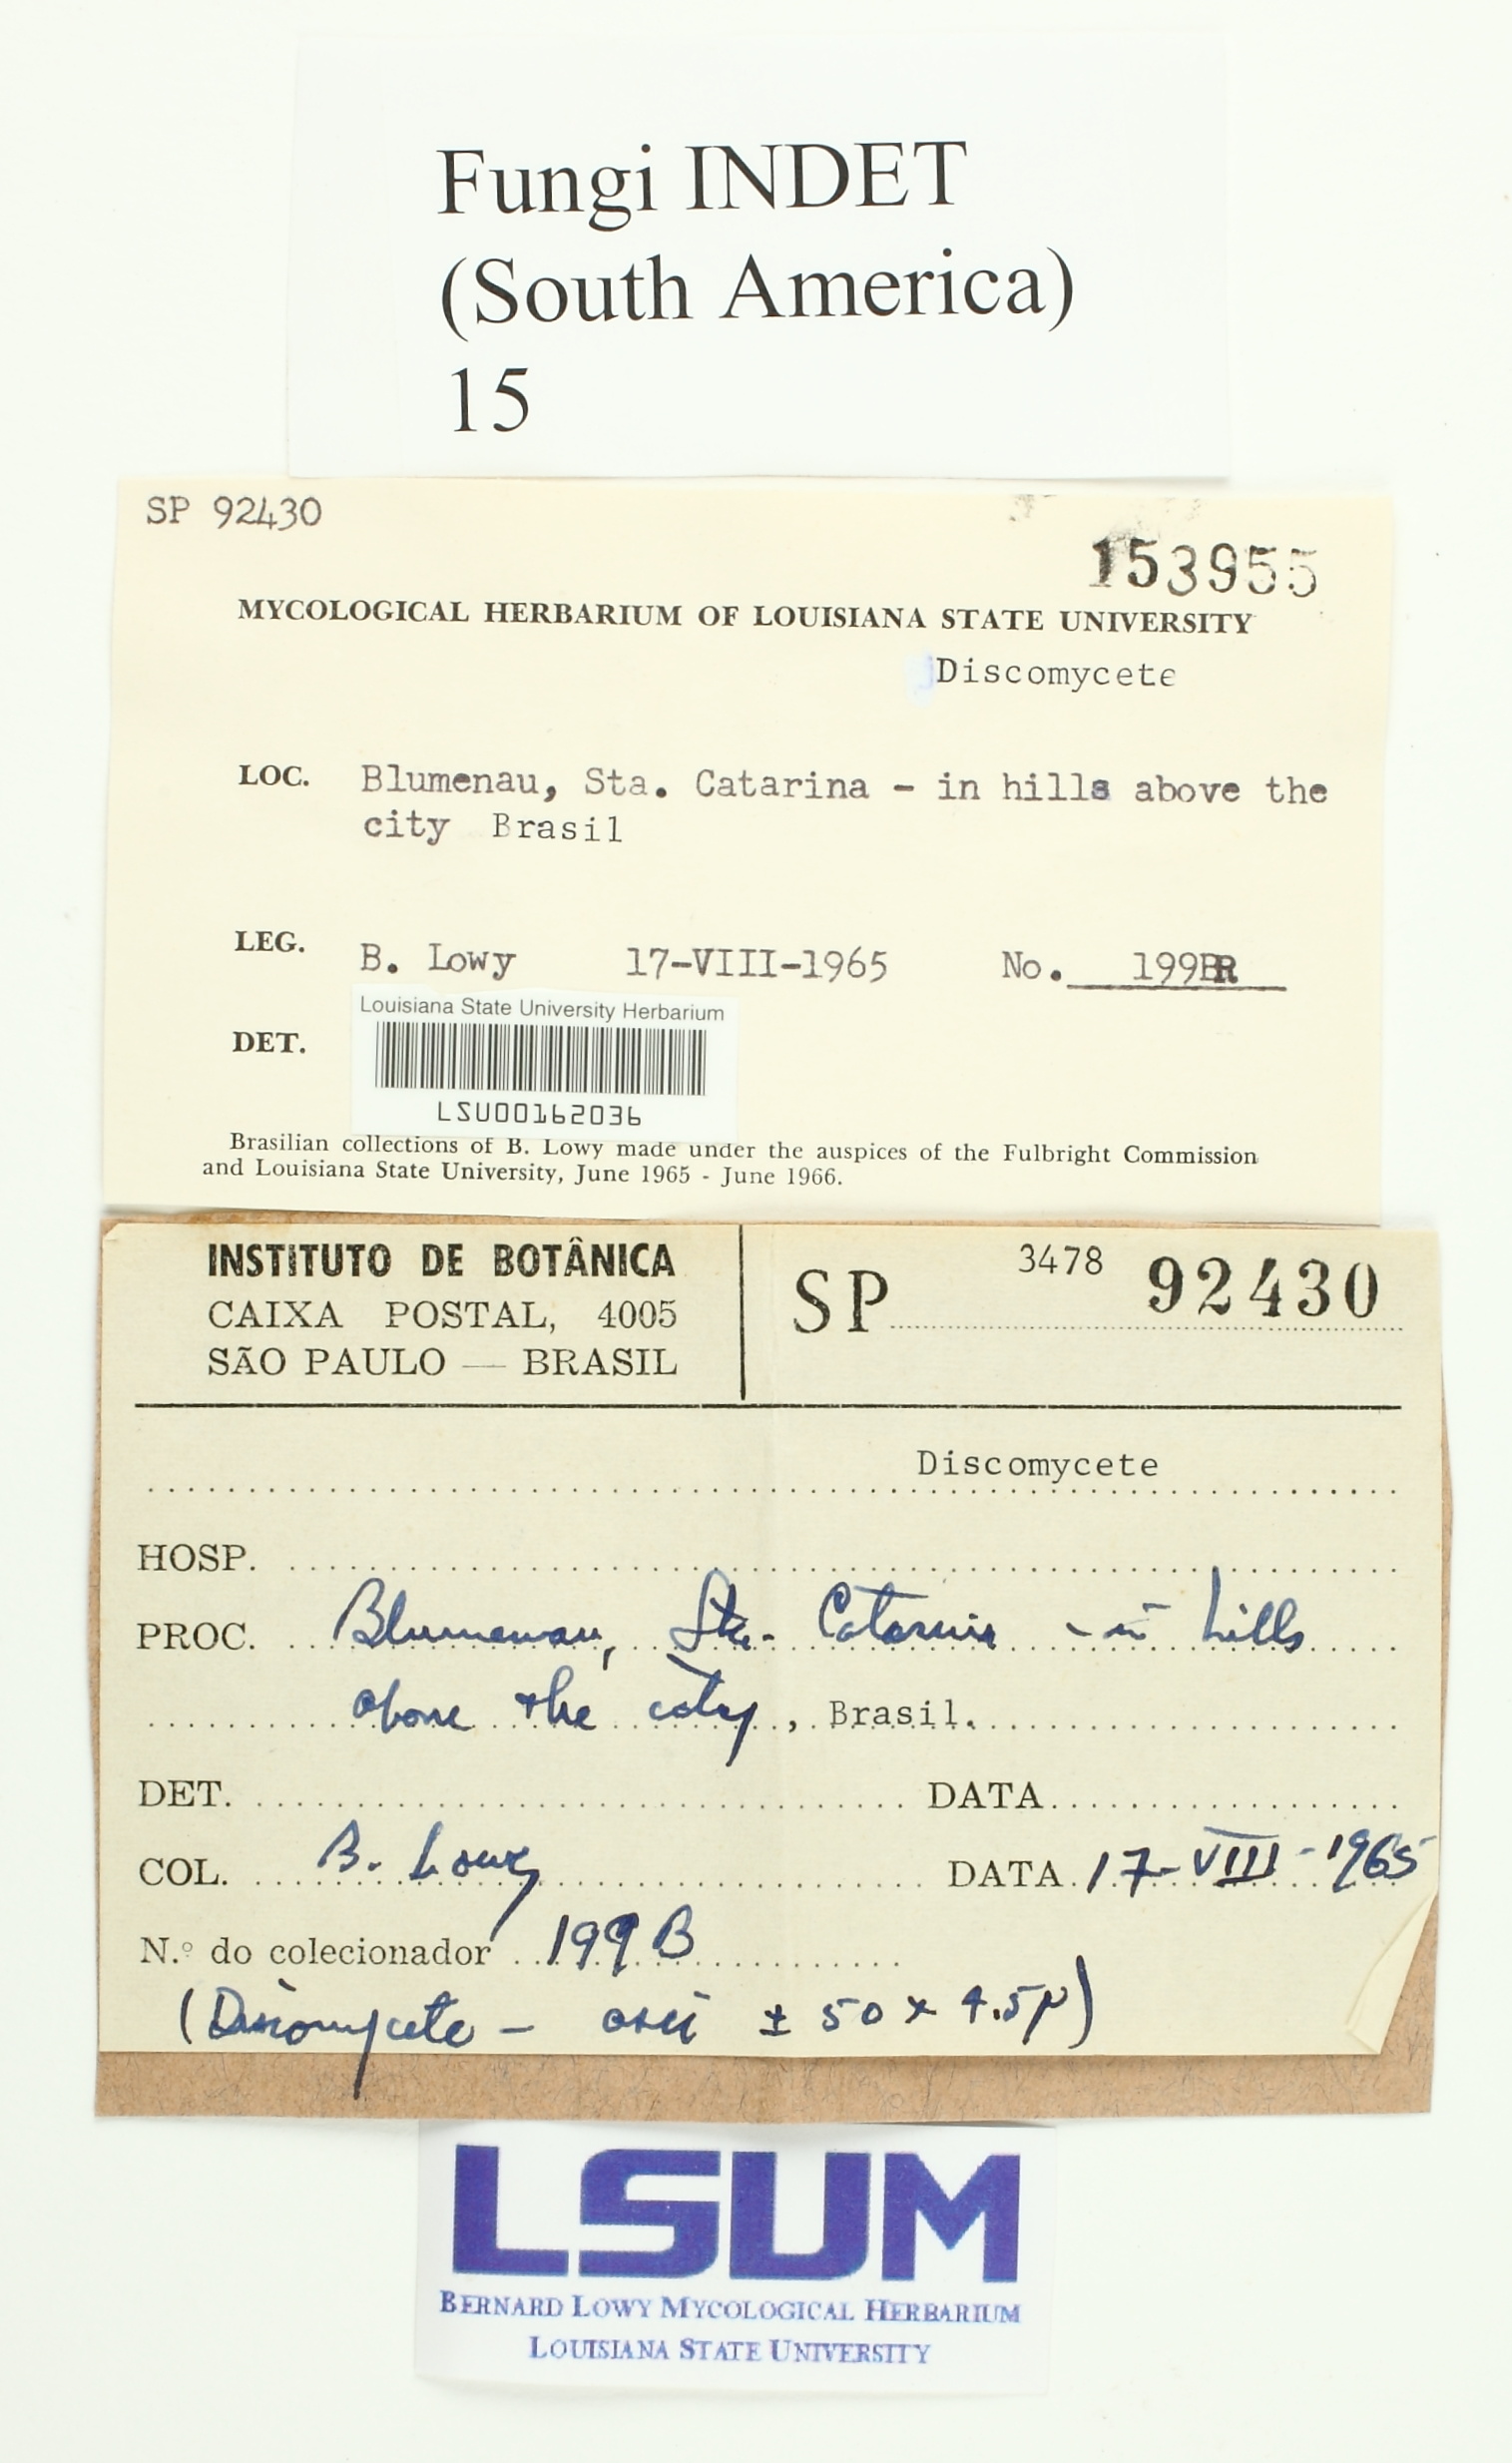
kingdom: Fungi
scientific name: Fungi
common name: Fungi
